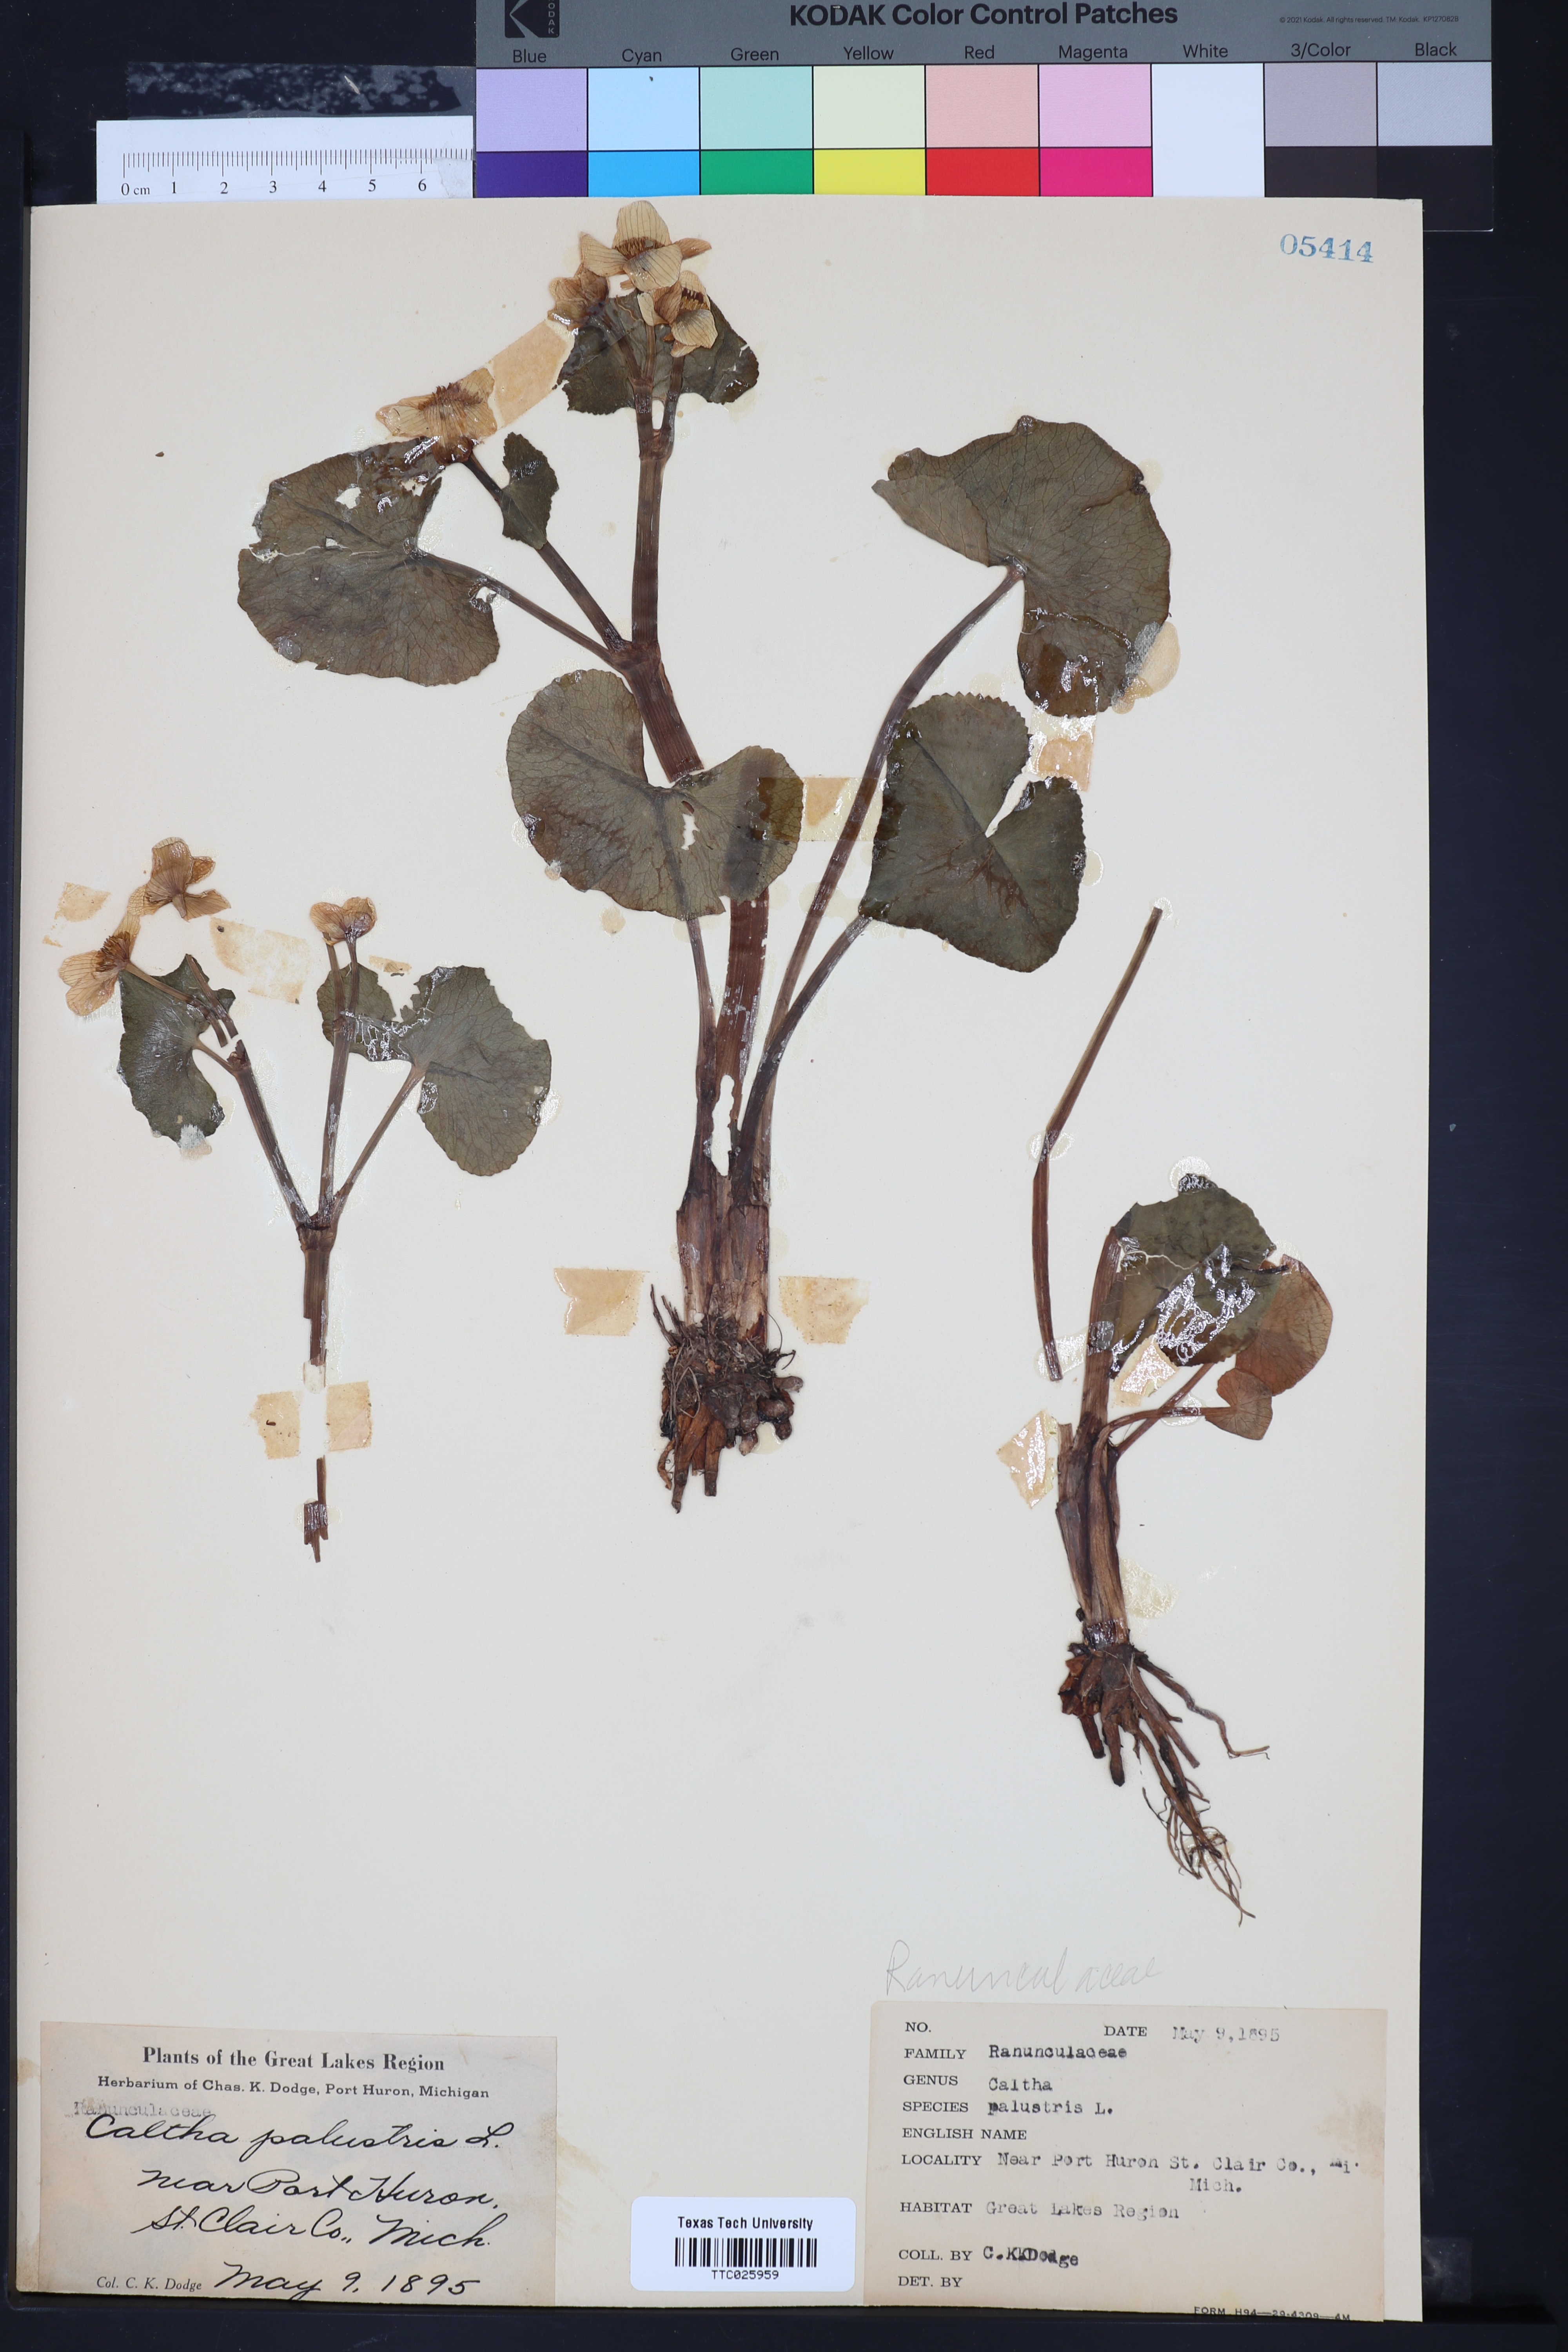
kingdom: Plantae
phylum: Tracheophyta
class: Magnoliopsida
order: Ranunculales
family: Ranunculaceae
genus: Caltha
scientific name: Caltha palustris
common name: Marsh marigold
